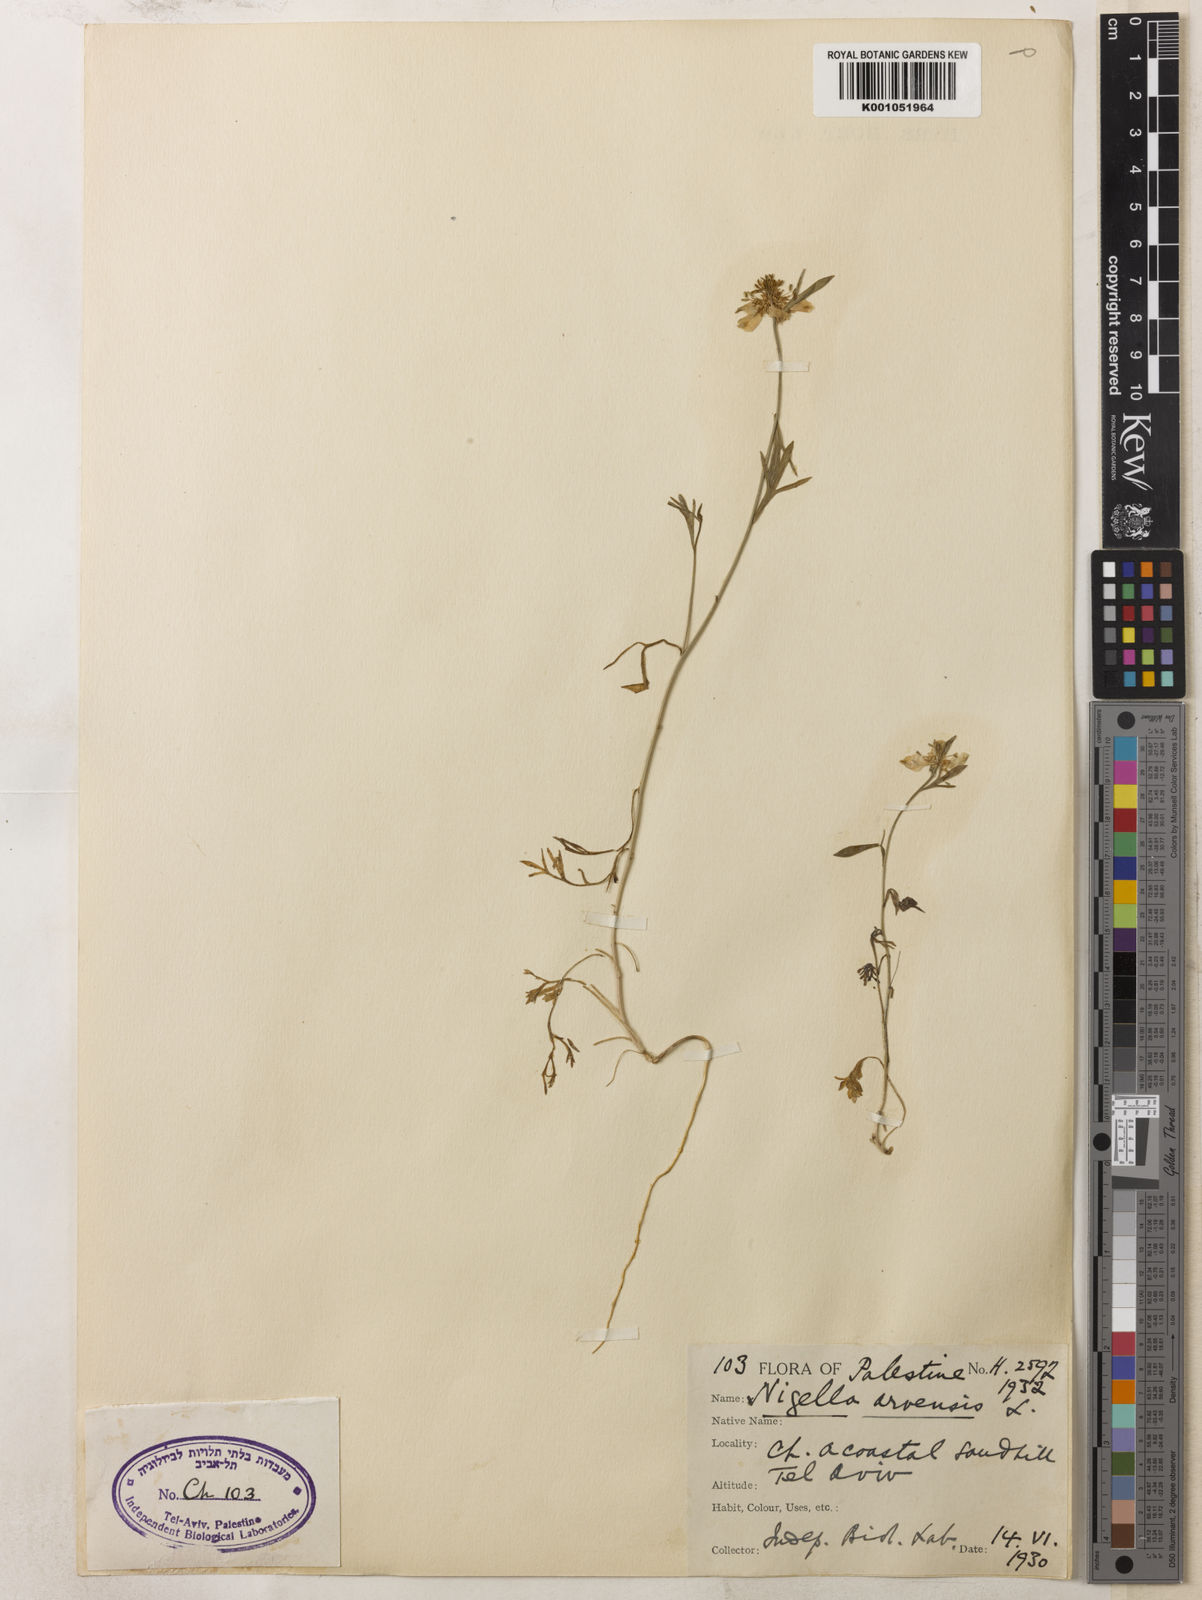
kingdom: Plantae
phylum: Tracheophyta
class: Magnoliopsida
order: Ranunculales
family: Ranunculaceae
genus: Nigella
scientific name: Nigella arvensis
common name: Wild fennel-flower
